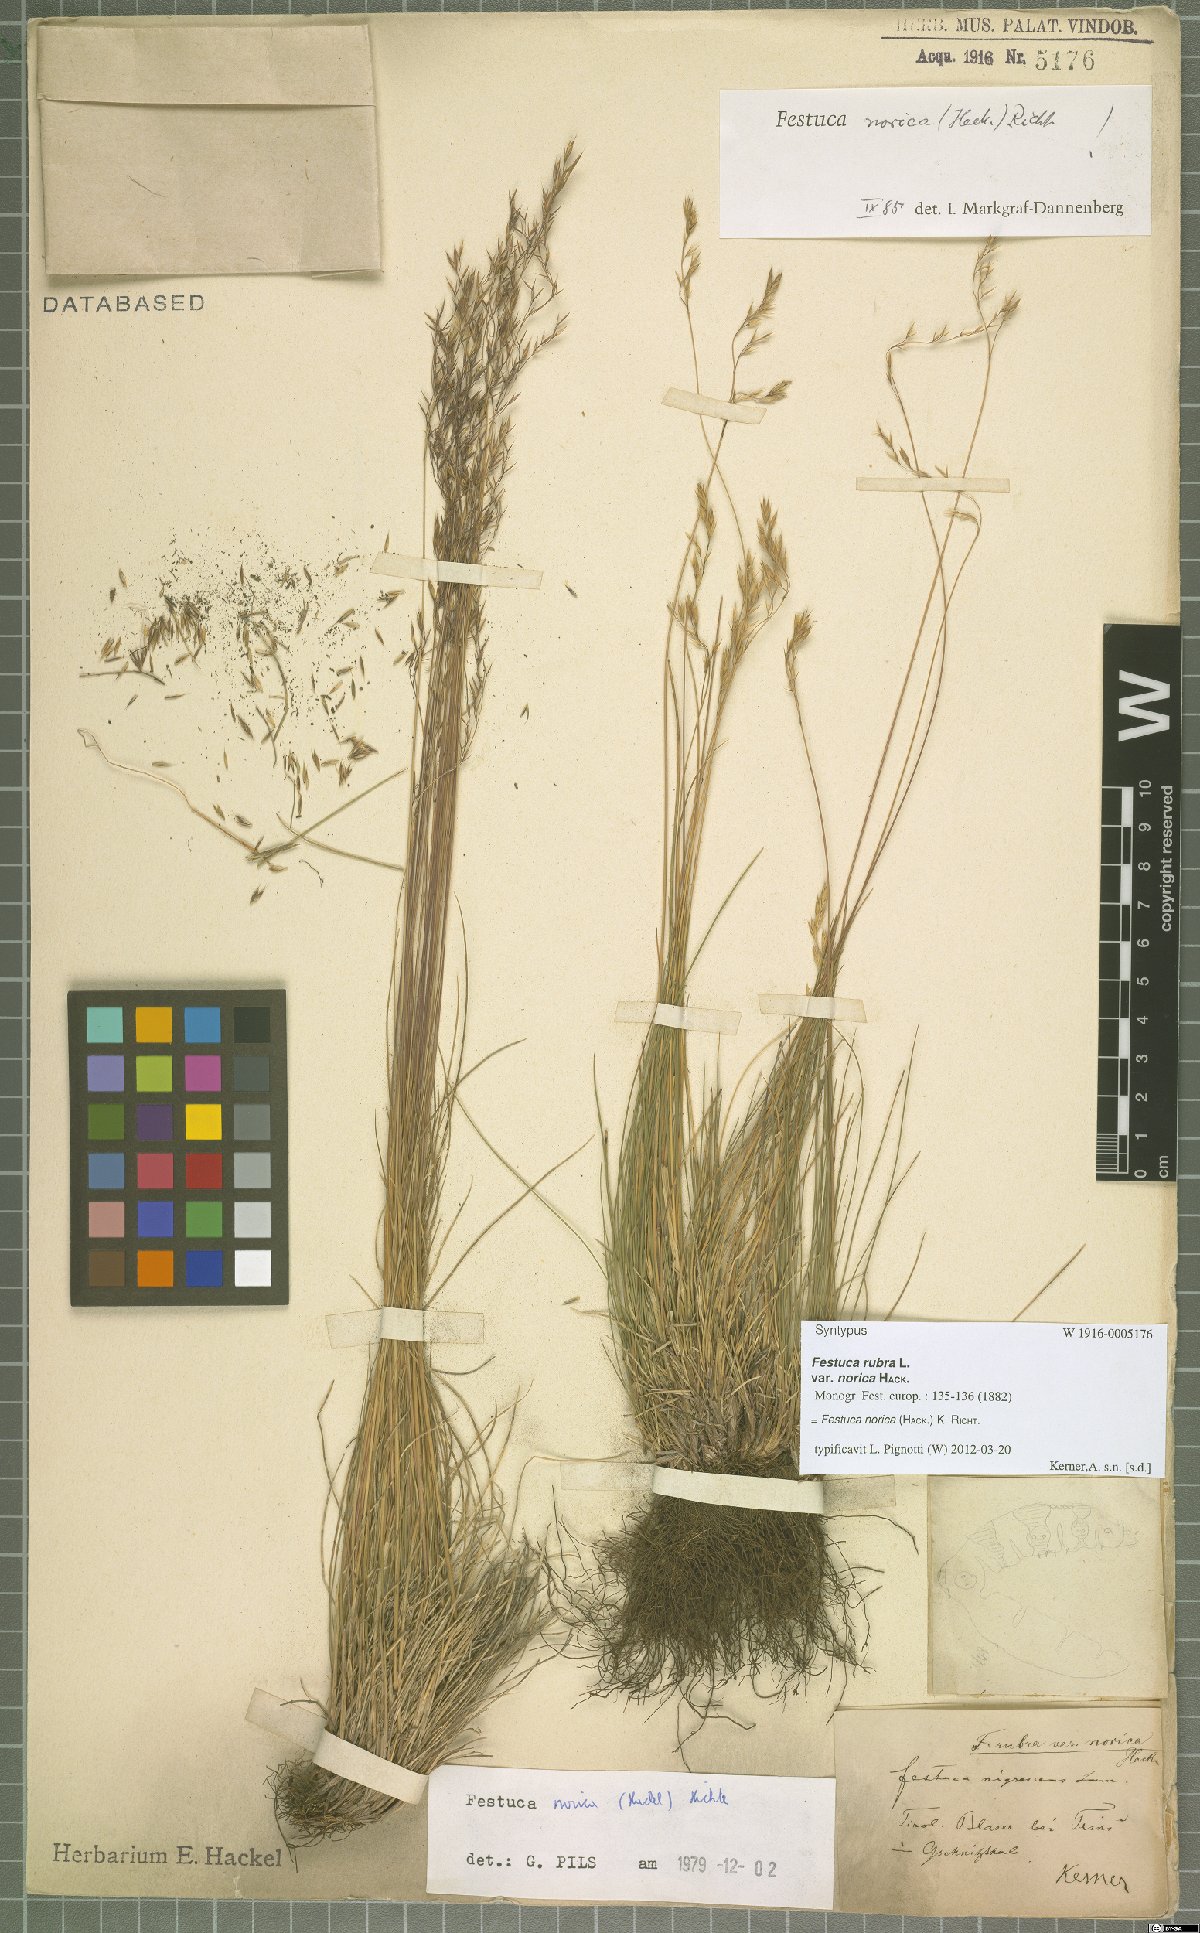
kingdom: Plantae
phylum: Tracheophyta
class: Liliopsida
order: Poales
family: Poaceae
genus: Festuca
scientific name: Festuca norica
